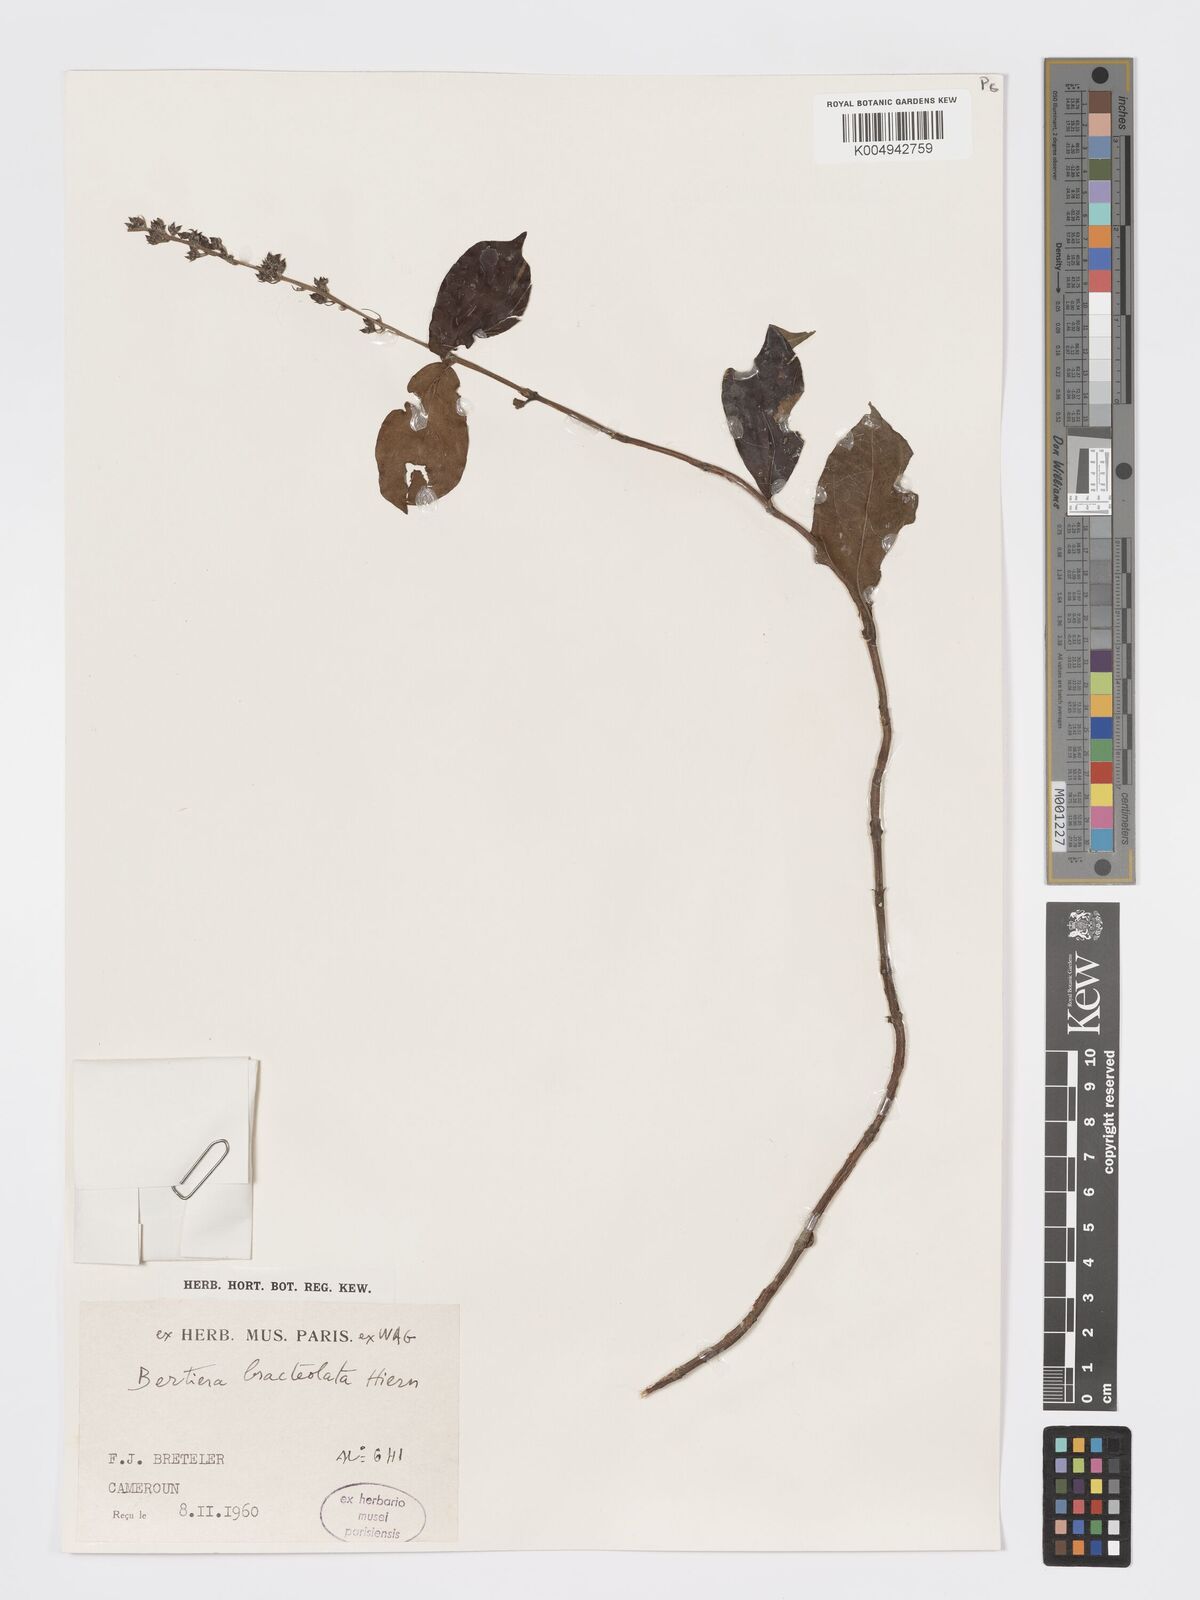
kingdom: Plantae
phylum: Tracheophyta
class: Magnoliopsida
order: Gentianales
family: Rubiaceae
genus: Bertiera
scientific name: Bertiera bracteolata
